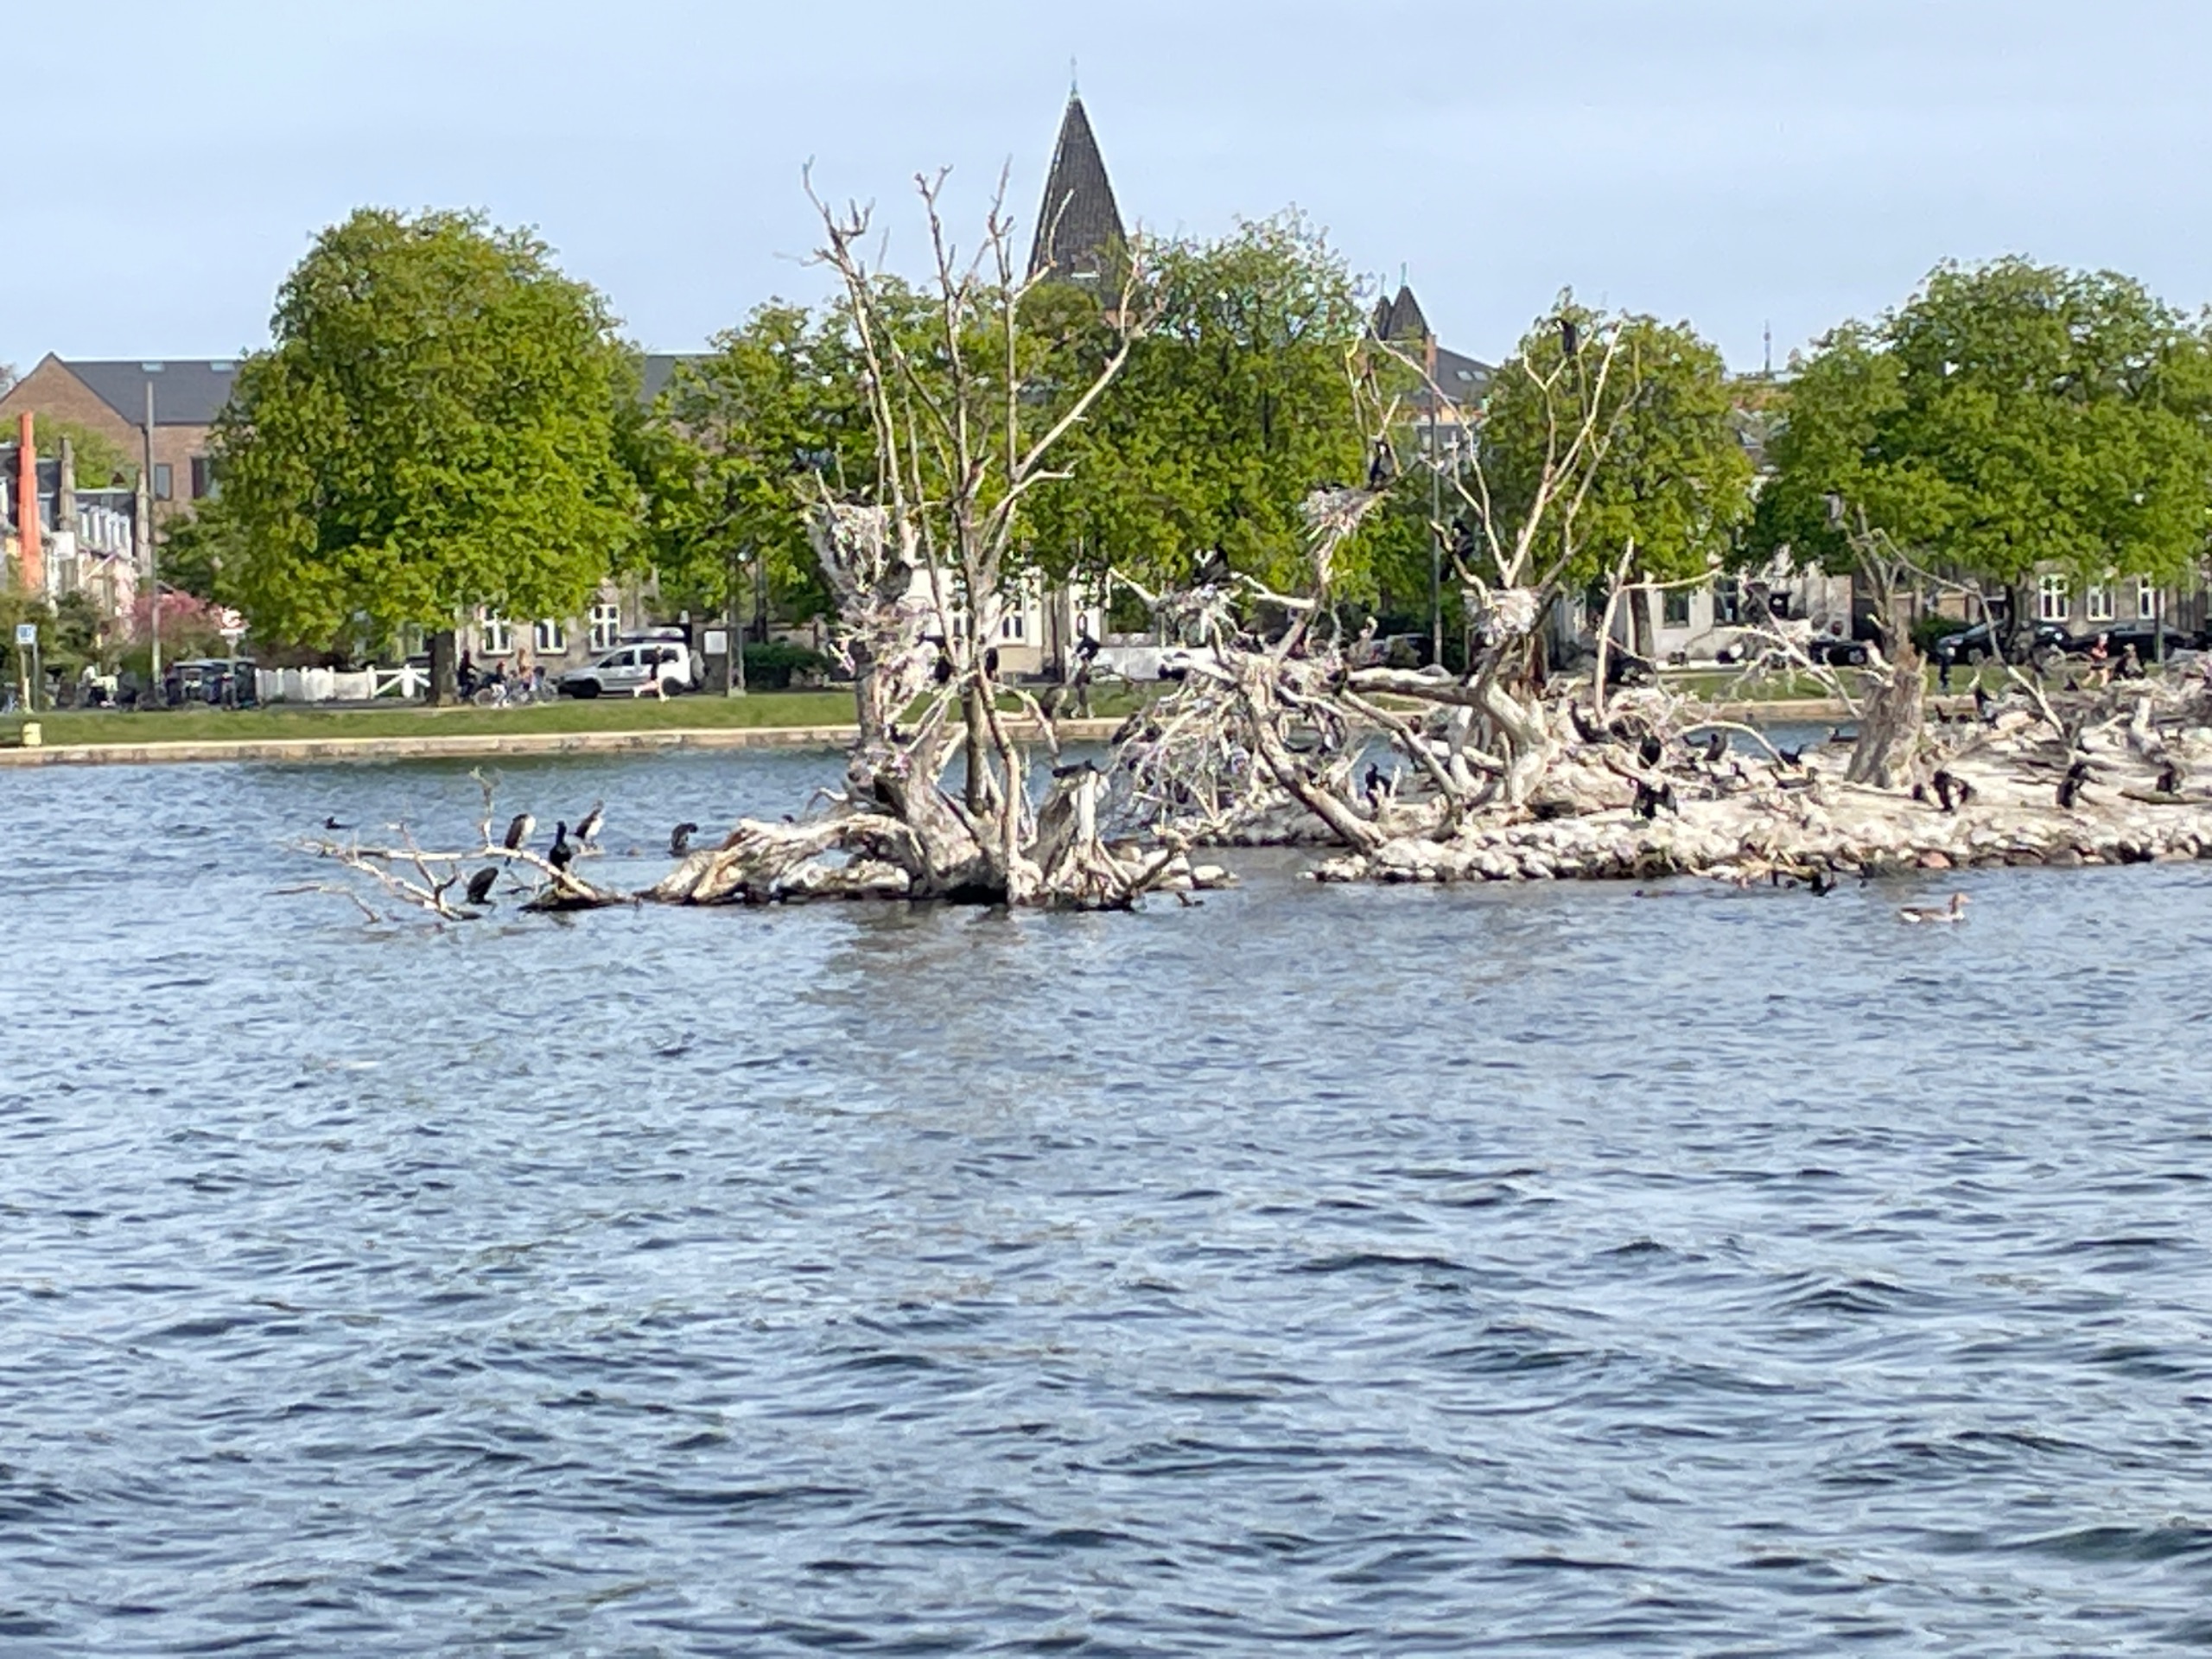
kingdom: Animalia
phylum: Chordata
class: Aves
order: Suliformes
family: Phalacrocoracidae
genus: Phalacrocorax
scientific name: Phalacrocorax carbo
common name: Skarv
